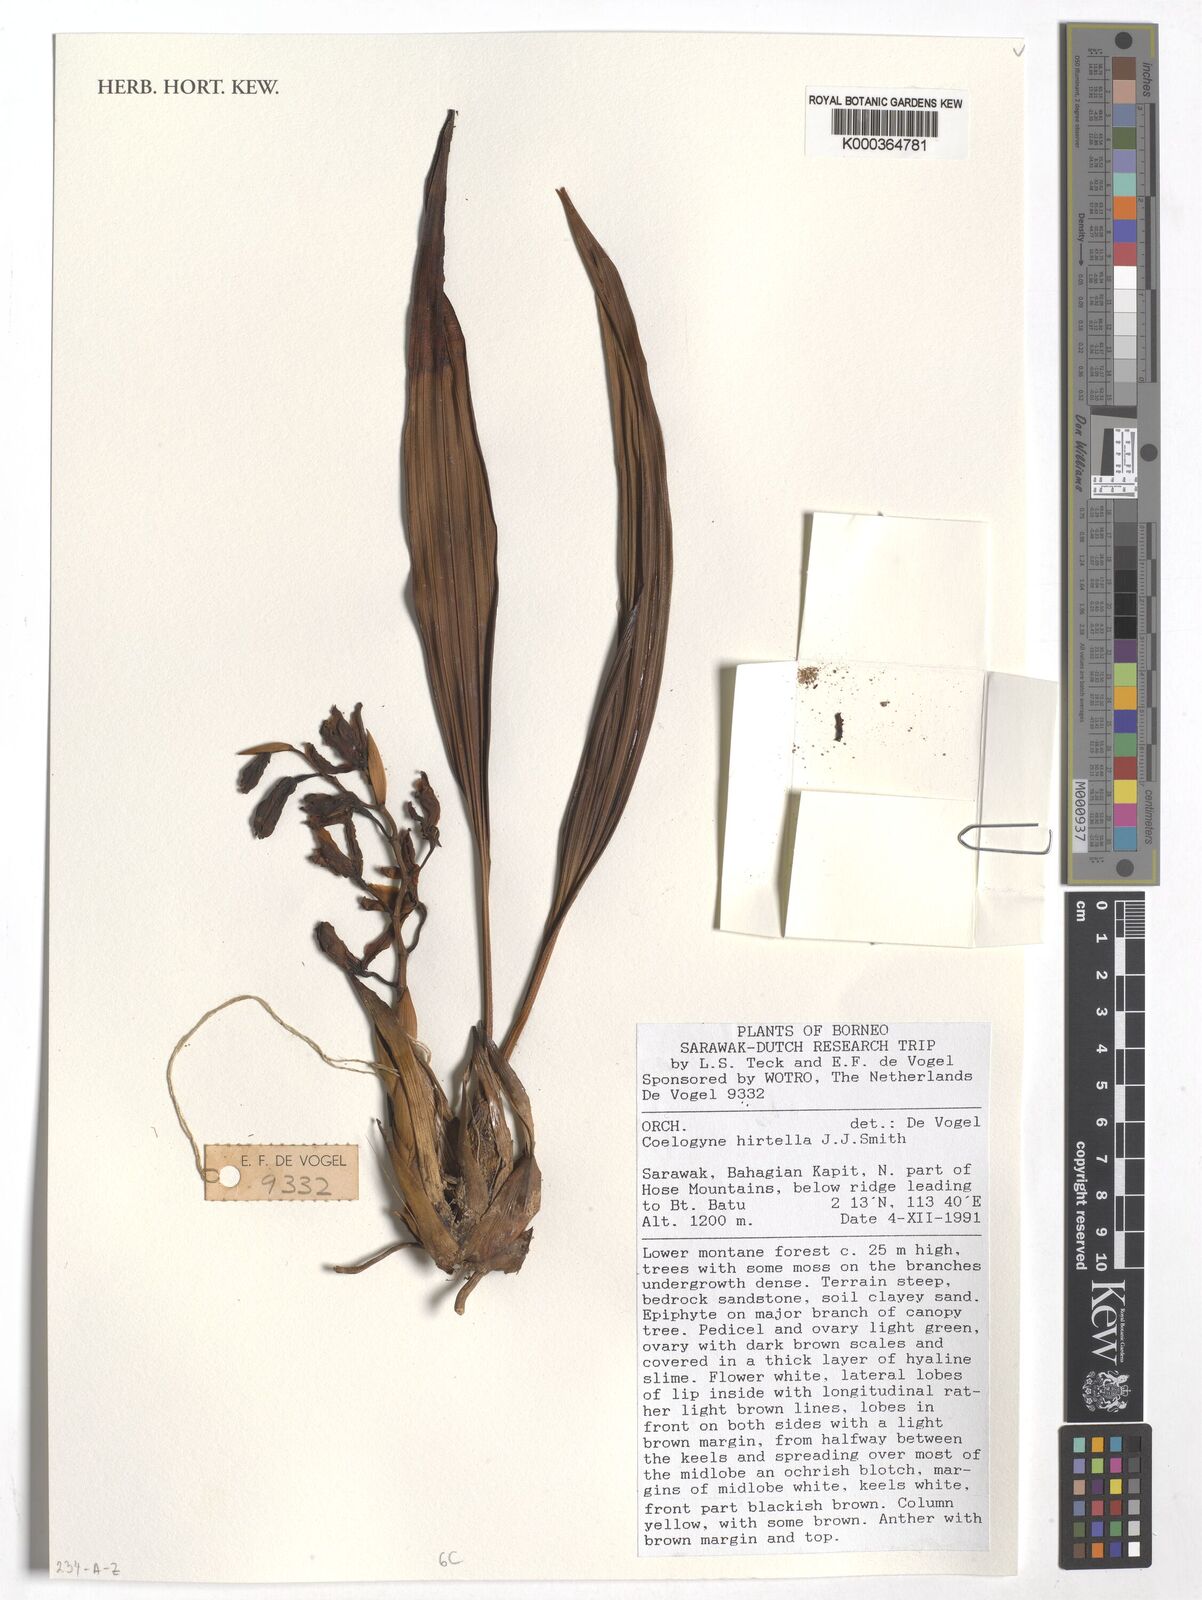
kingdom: Plantae
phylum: Tracheophyta
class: Liliopsida
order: Asparagales
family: Orchidaceae
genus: Coelogyne
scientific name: Coelogyne hirtella
